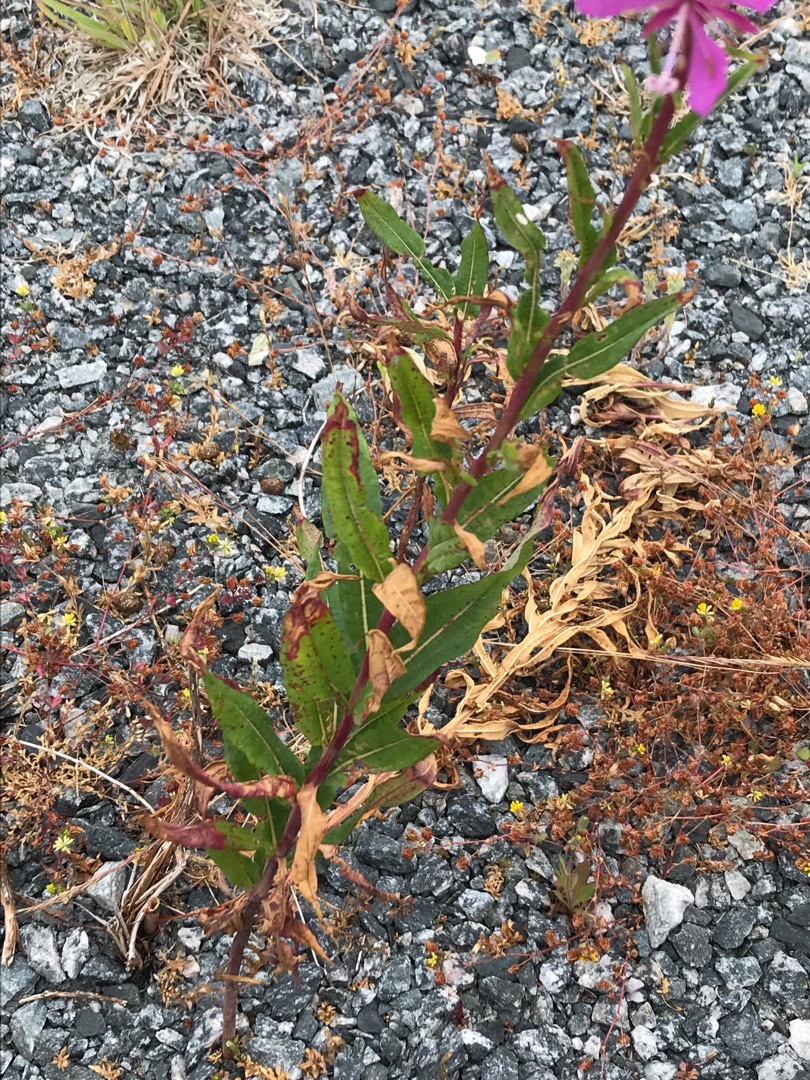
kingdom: Plantae
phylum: Tracheophyta
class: Magnoliopsida
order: Myrtales
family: Onagraceae
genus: Chamaenerion
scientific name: Chamaenerion angustifolium
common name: Gederams
